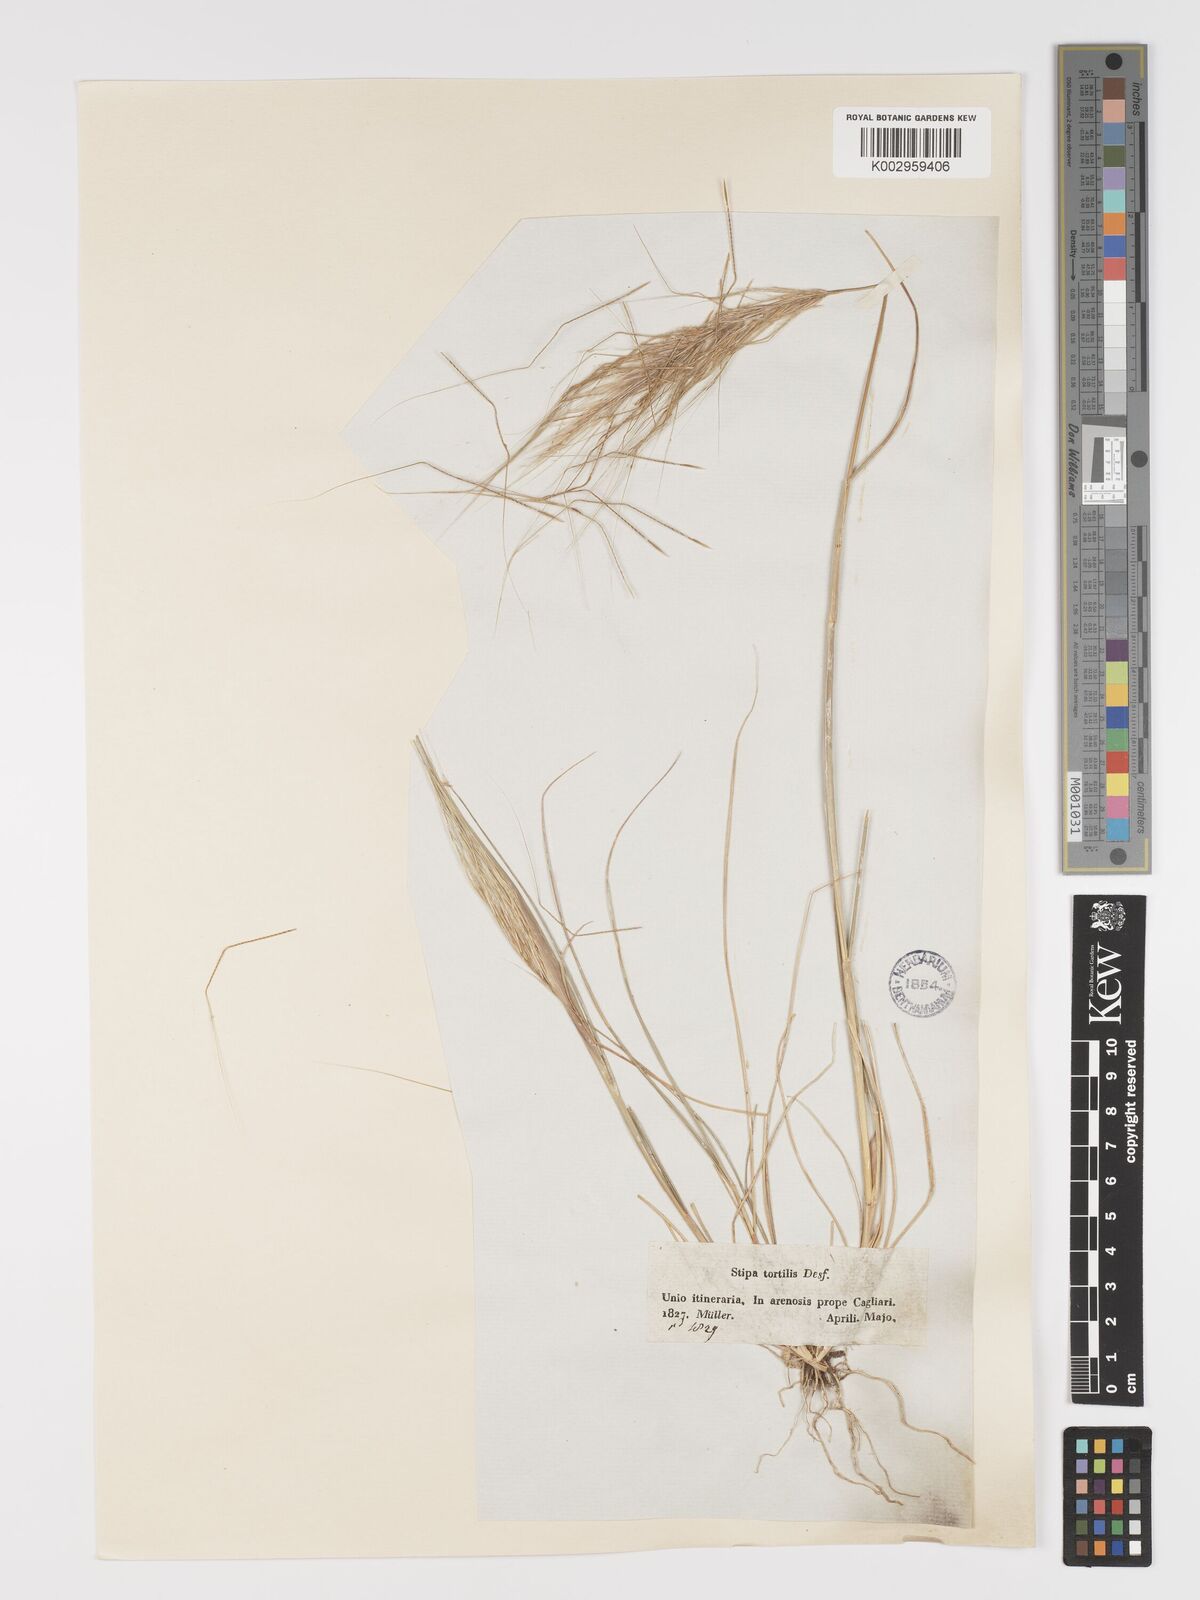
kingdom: Plantae
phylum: Tracheophyta
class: Liliopsida
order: Poales
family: Poaceae
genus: Stipa
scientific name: Stipa
